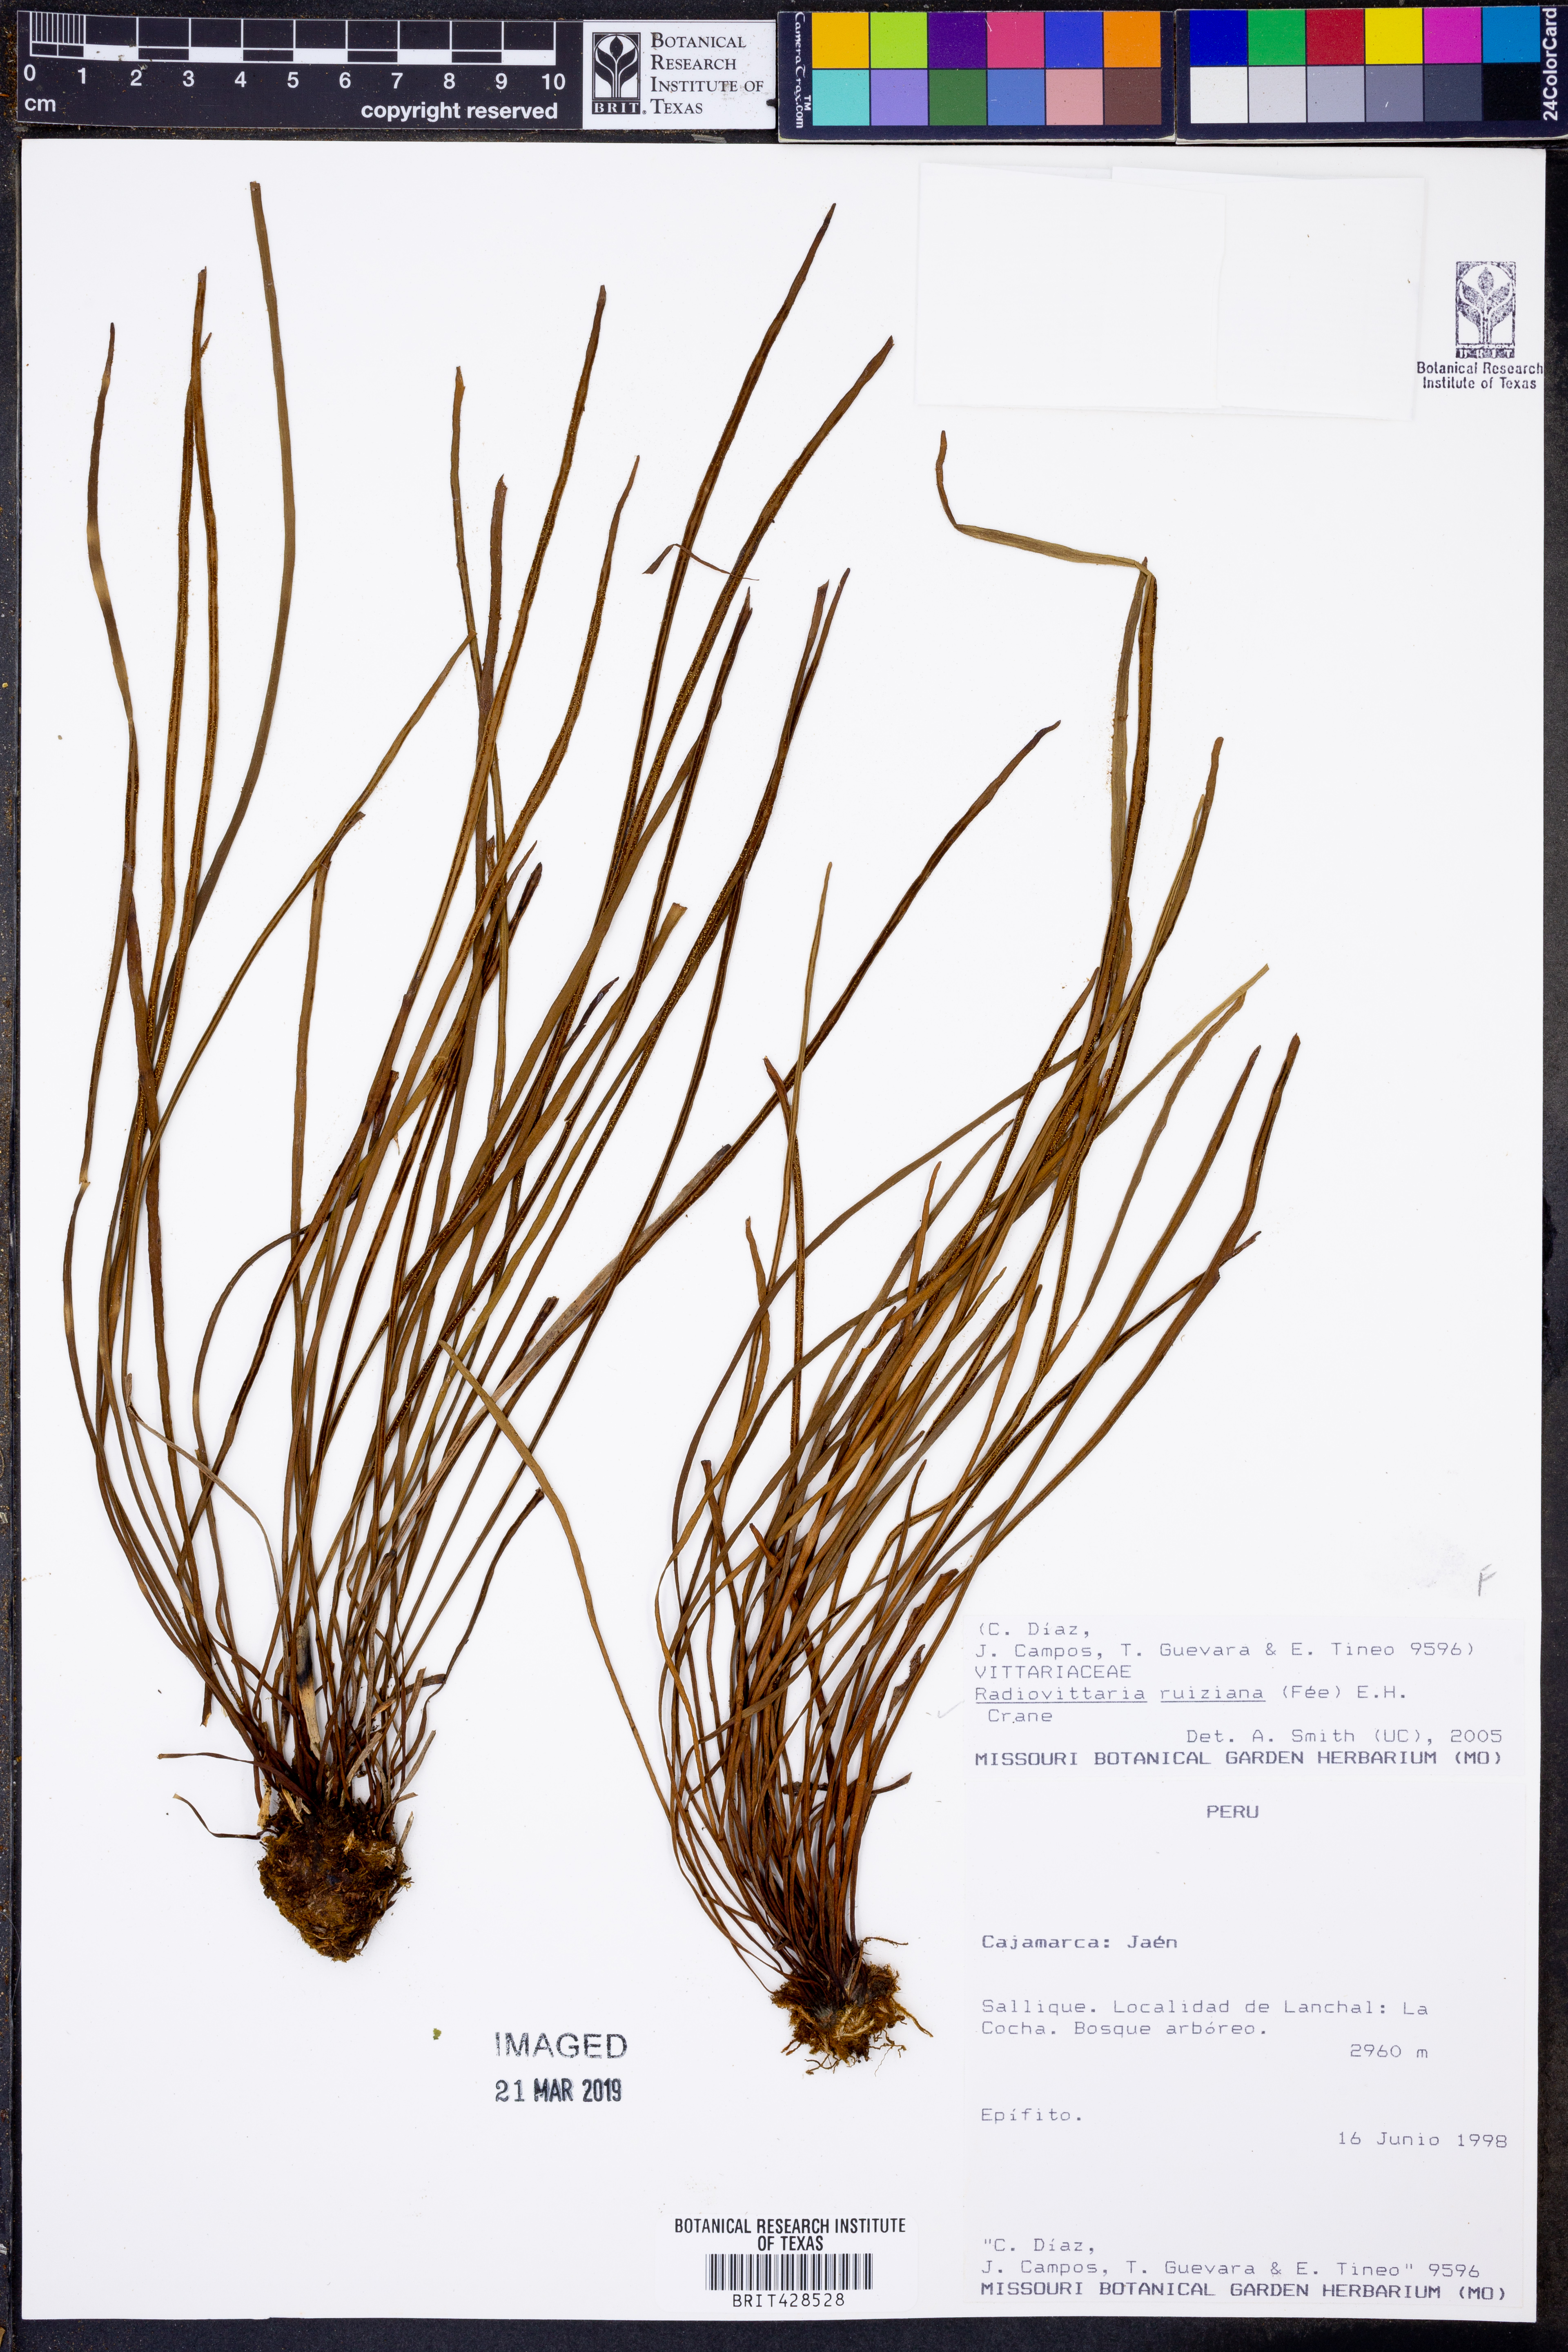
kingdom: Plantae
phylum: Tracheophyta
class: Polypodiopsida
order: Polypodiales
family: Pteridaceae
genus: Radiovittaria
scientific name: Radiovittaria ruiziana
